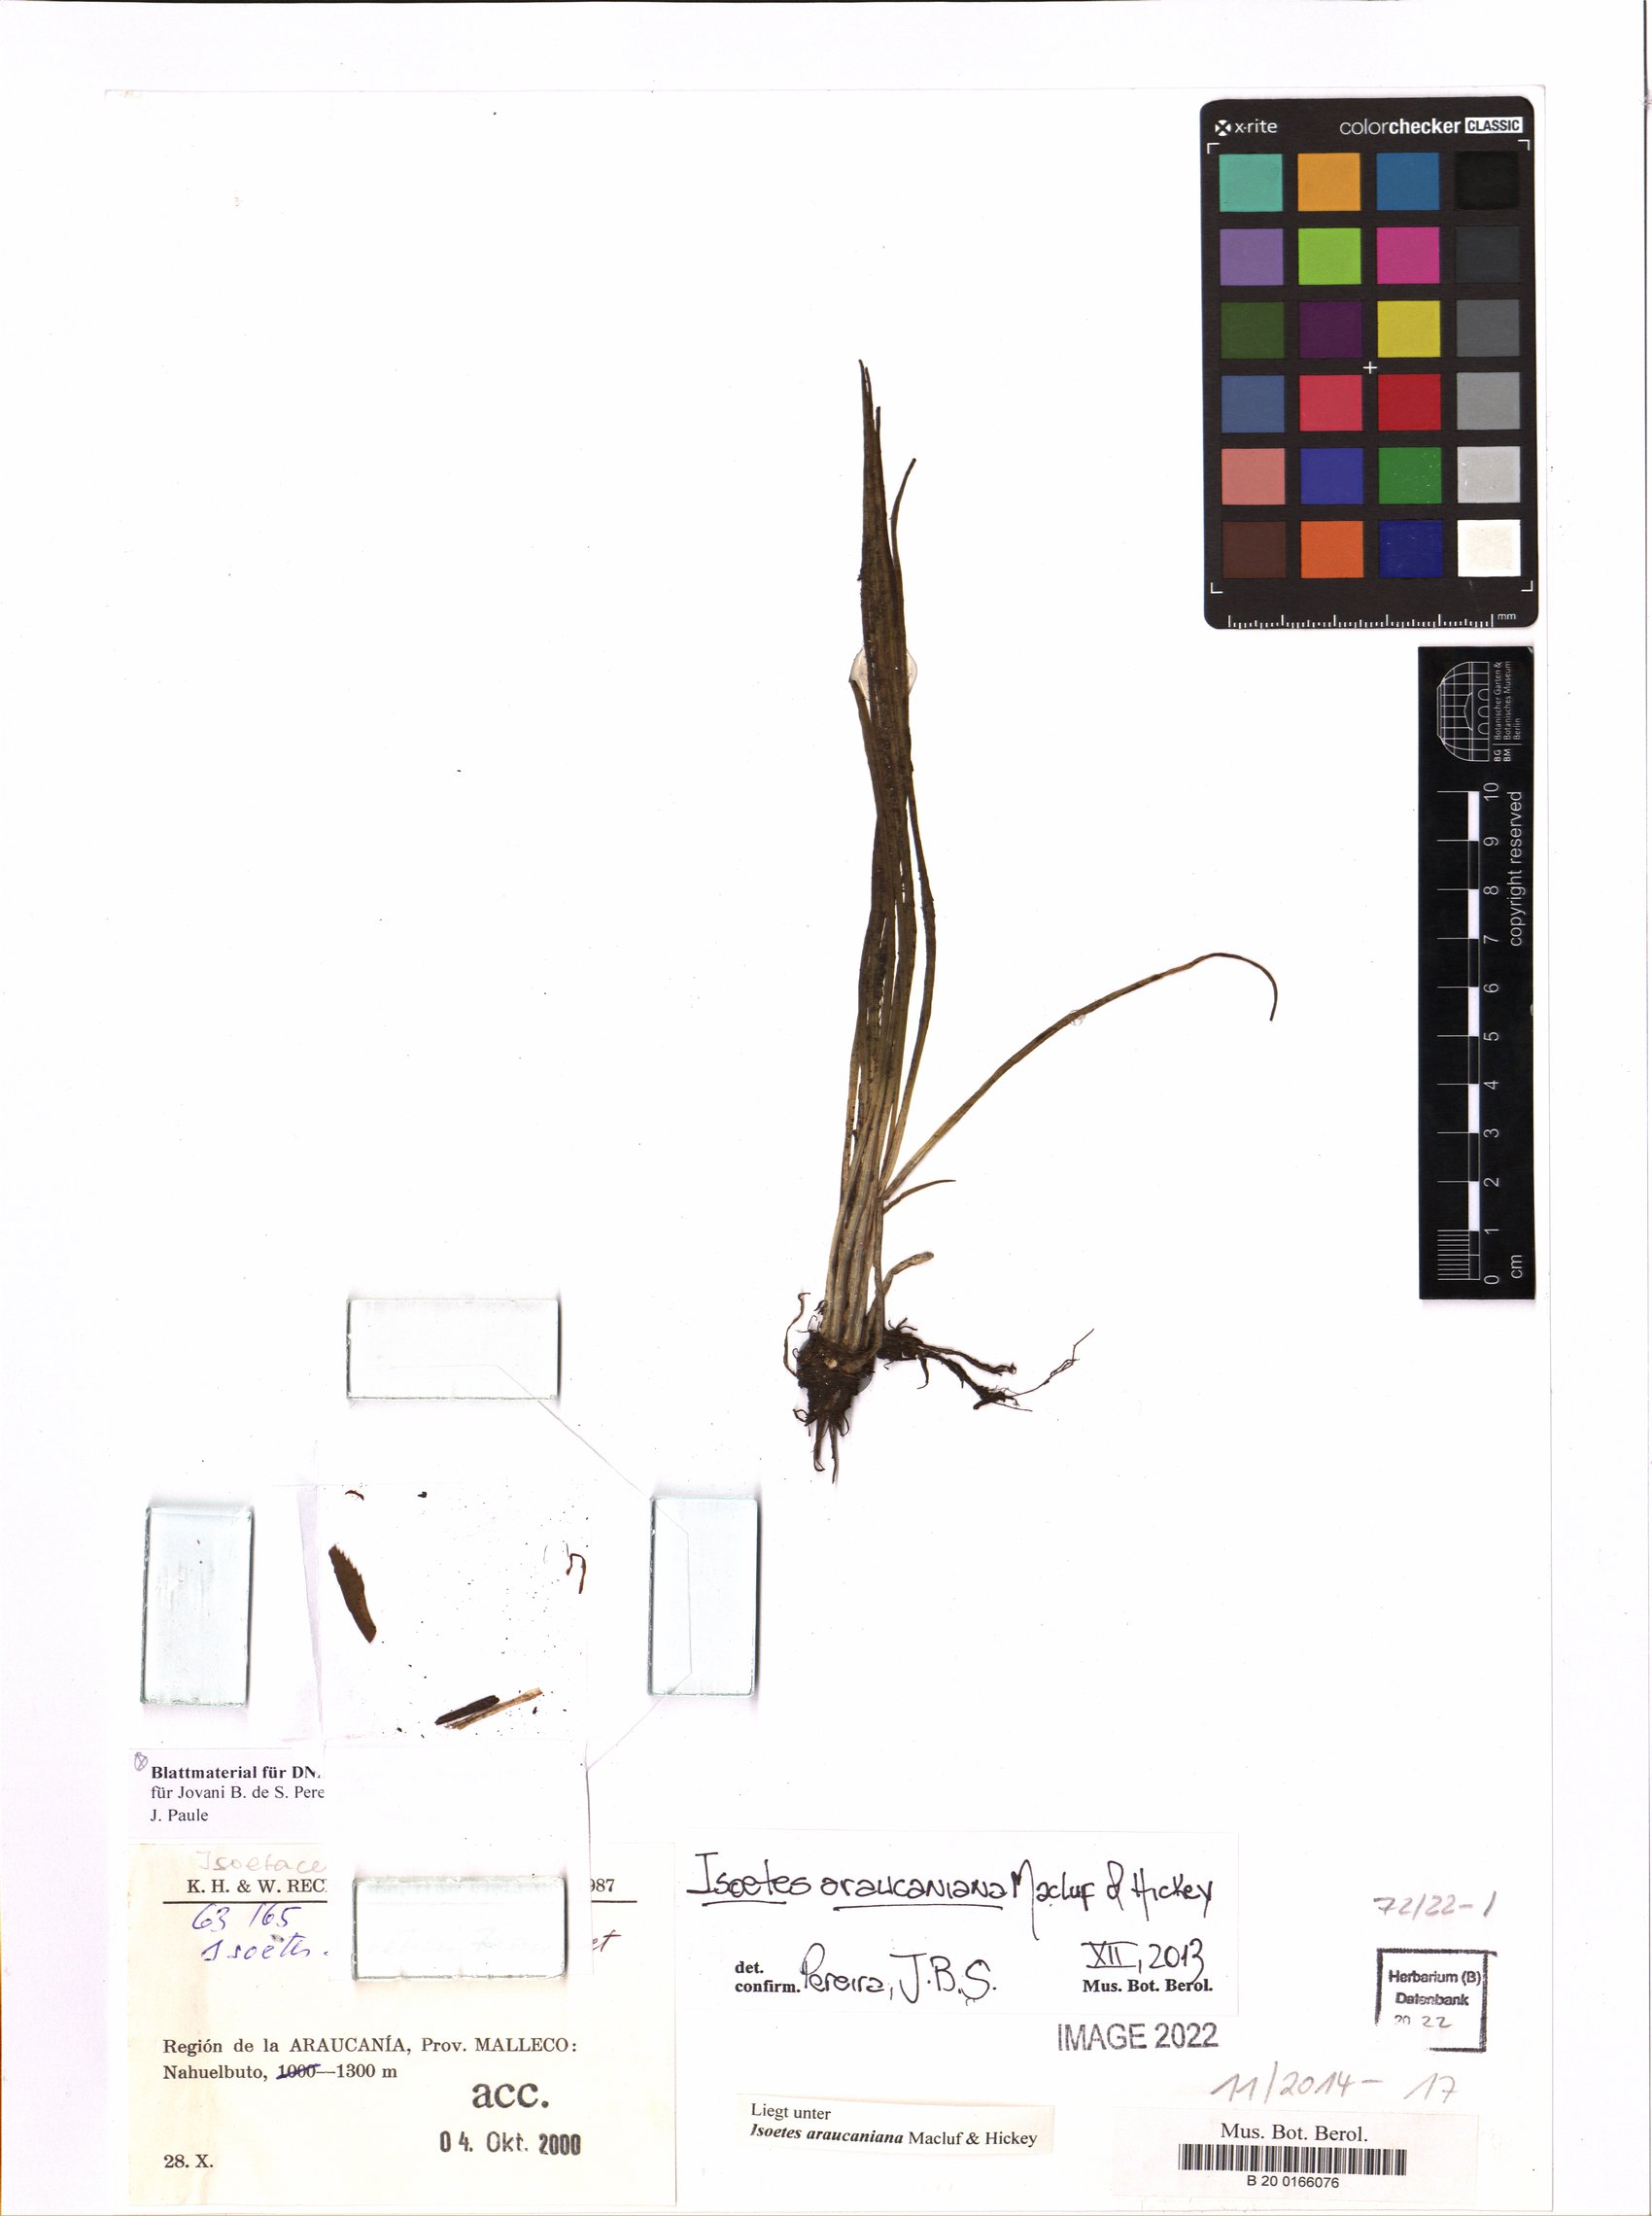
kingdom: Plantae
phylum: Tracheophyta
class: Lycopodiopsida
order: Isoetales
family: Isoetaceae
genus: Isoetes
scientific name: Isoetes araucaniana
